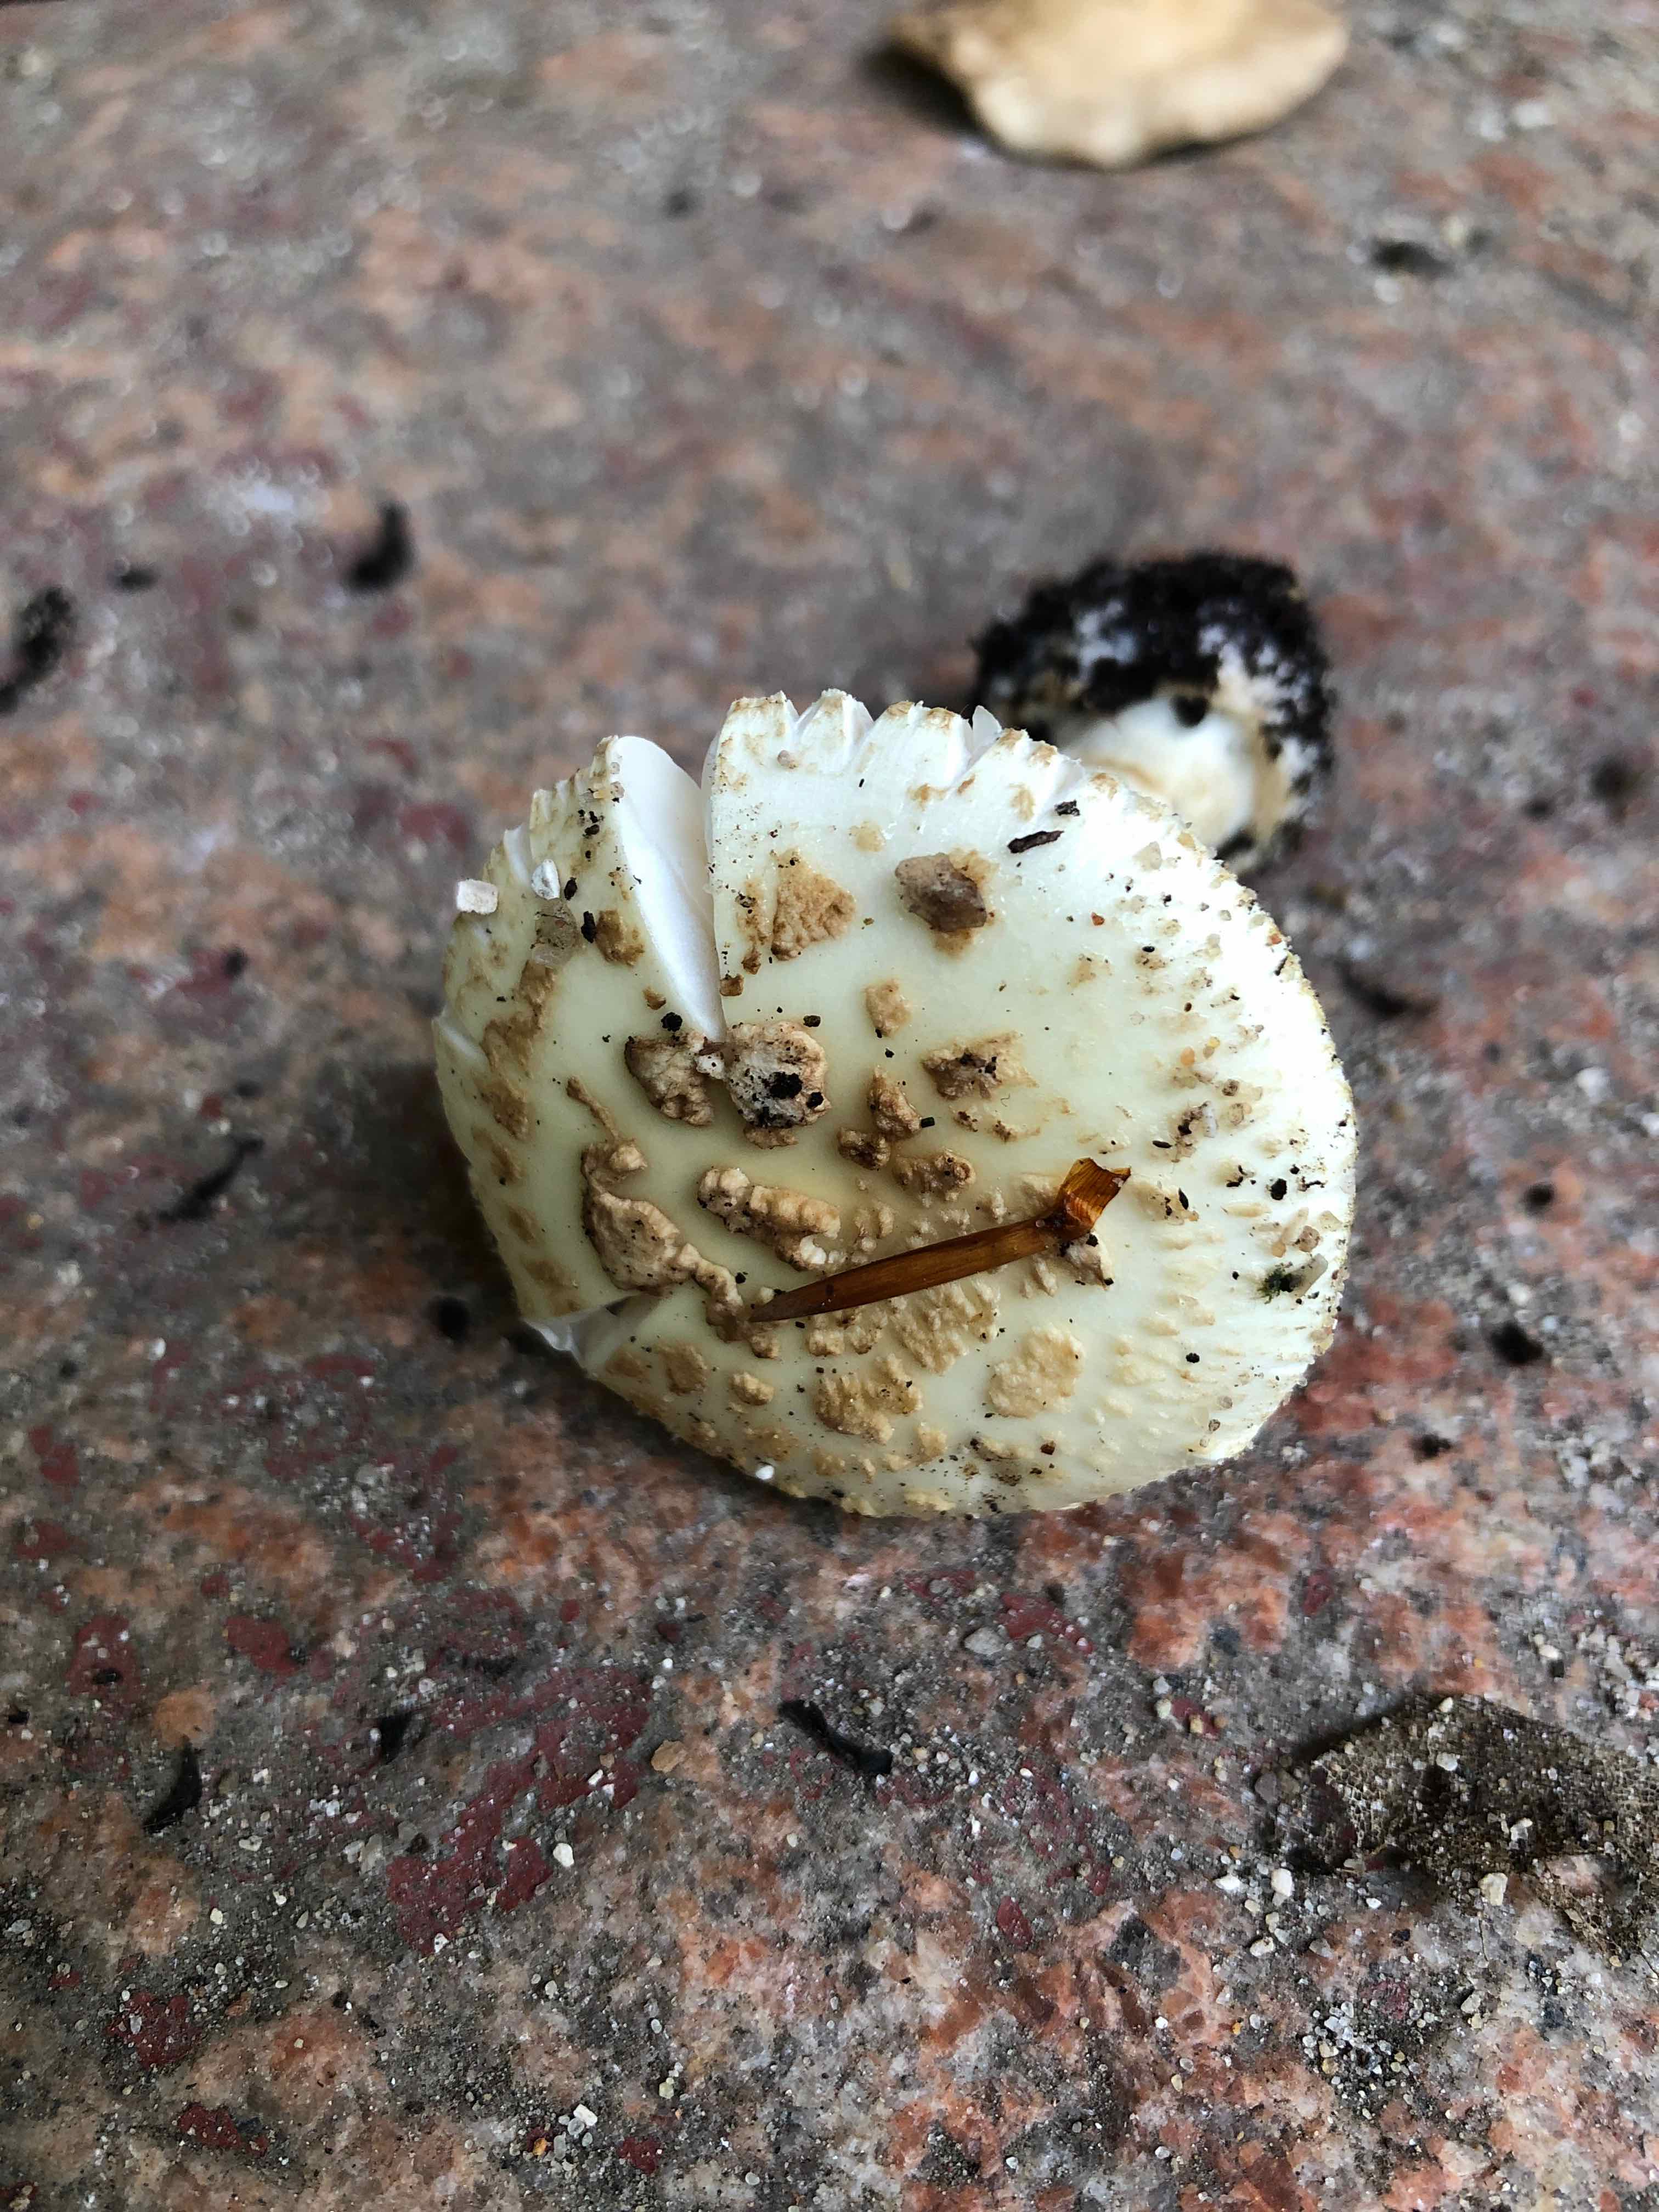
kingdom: Fungi
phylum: Basidiomycota
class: Agaricomycetes
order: Agaricales
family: Amanitaceae
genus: Amanita
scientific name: Amanita citrina
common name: kugleknoldet fluesvamp
